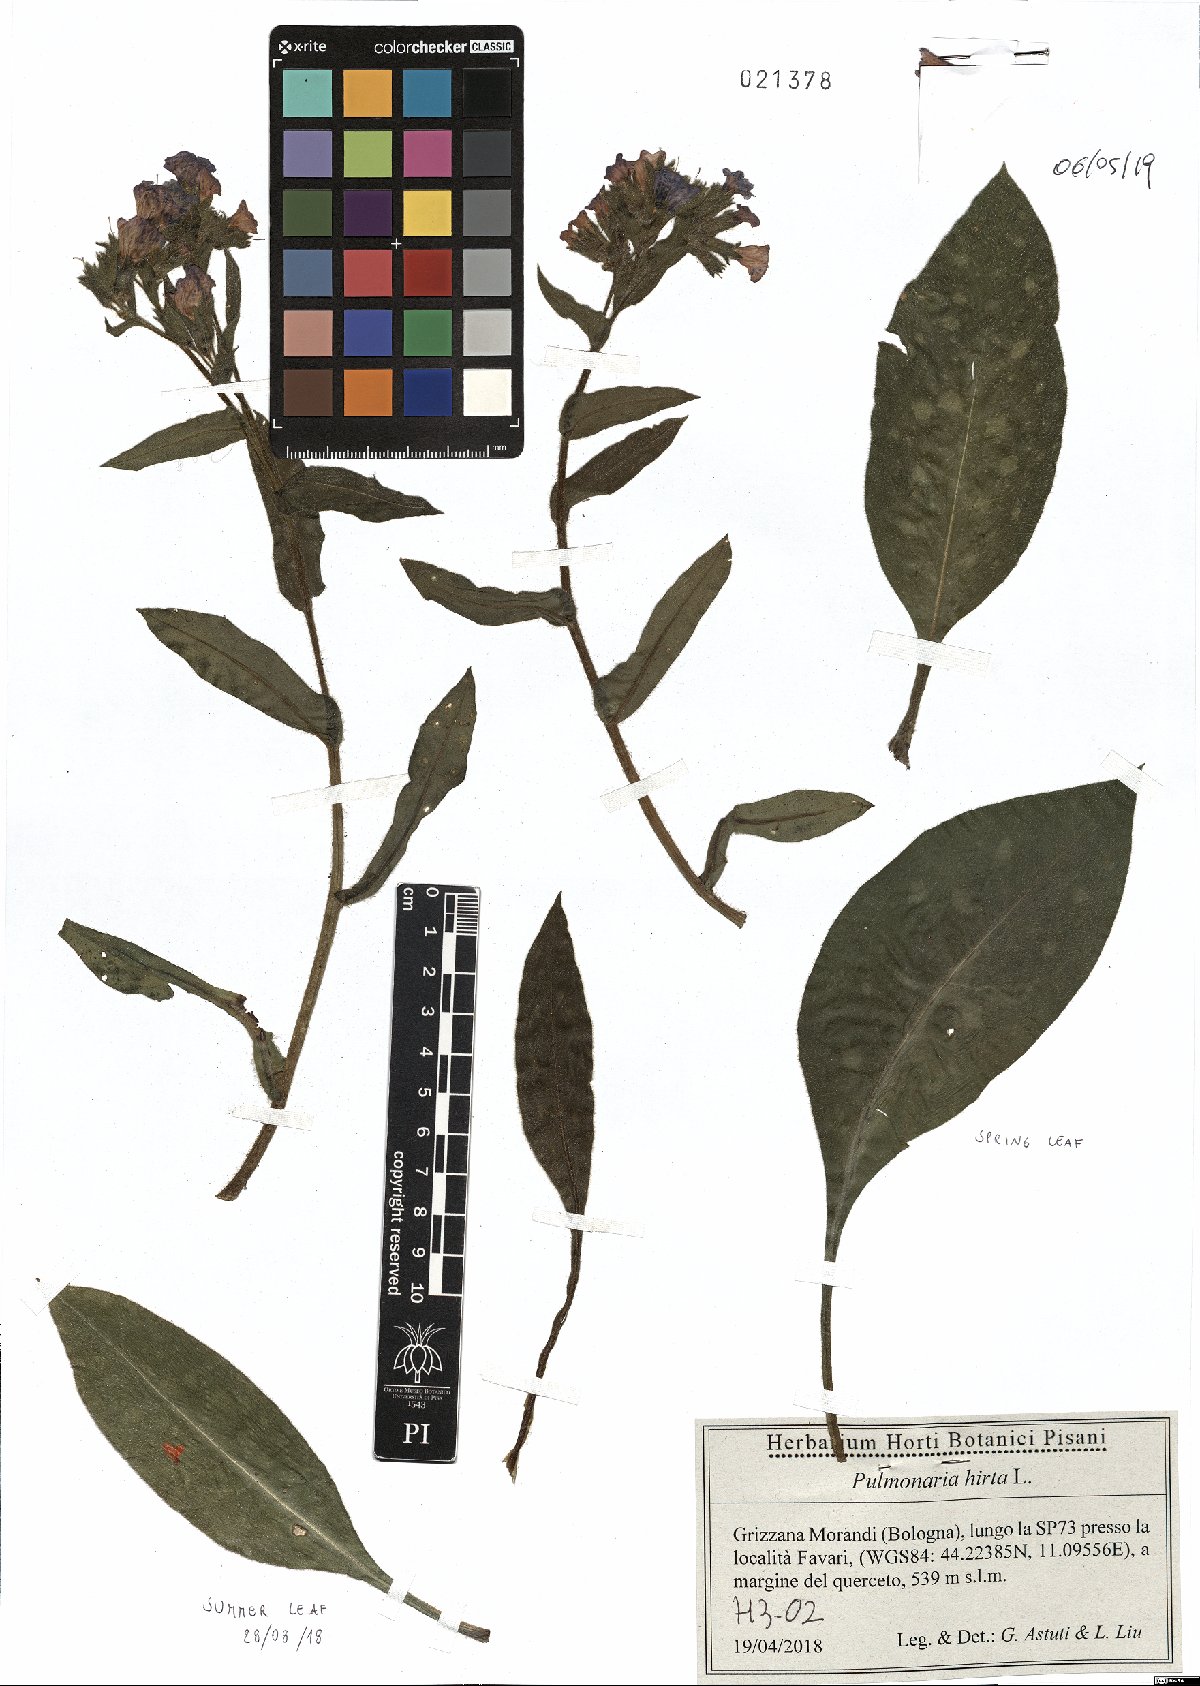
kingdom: Plantae
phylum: Tracheophyta
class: Magnoliopsida
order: Boraginales
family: Boraginaceae
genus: Pulmonaria
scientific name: Pulmonaria hirta
